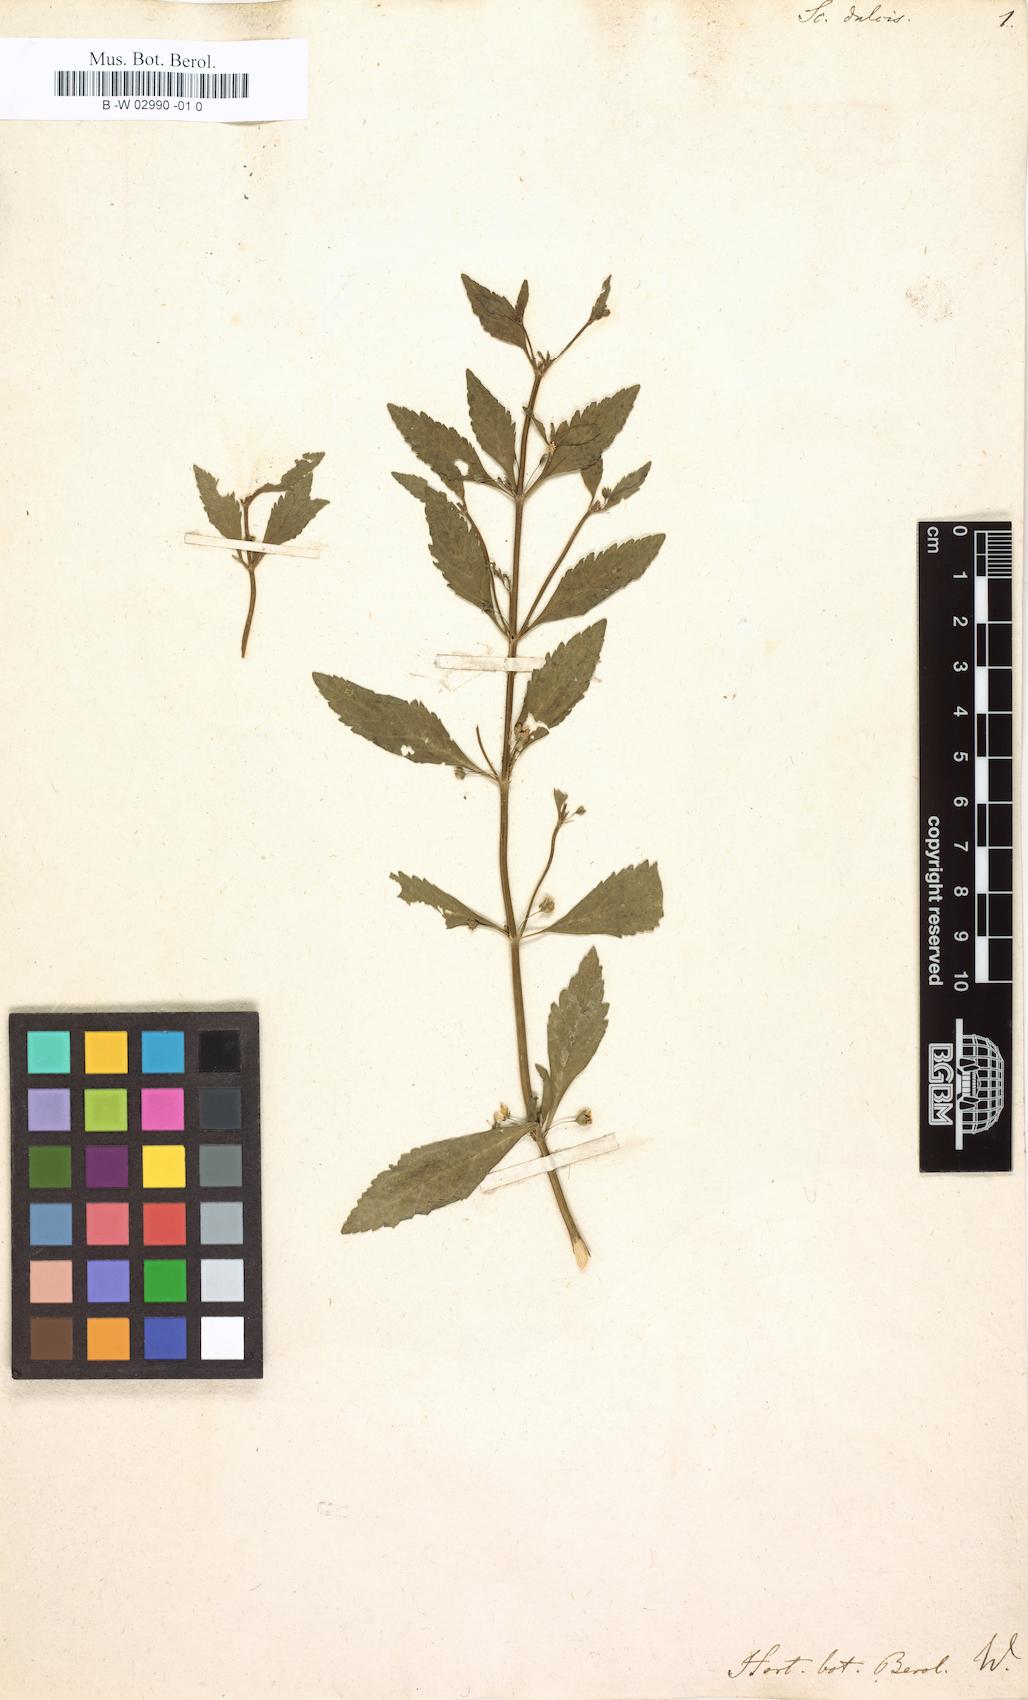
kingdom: Plantae
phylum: Tracheophyta
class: Magnoliopsida
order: Lamiales
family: Plantaginaceae
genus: Scoparia
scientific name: Scoparia dulcis
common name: Scoparia-weed
